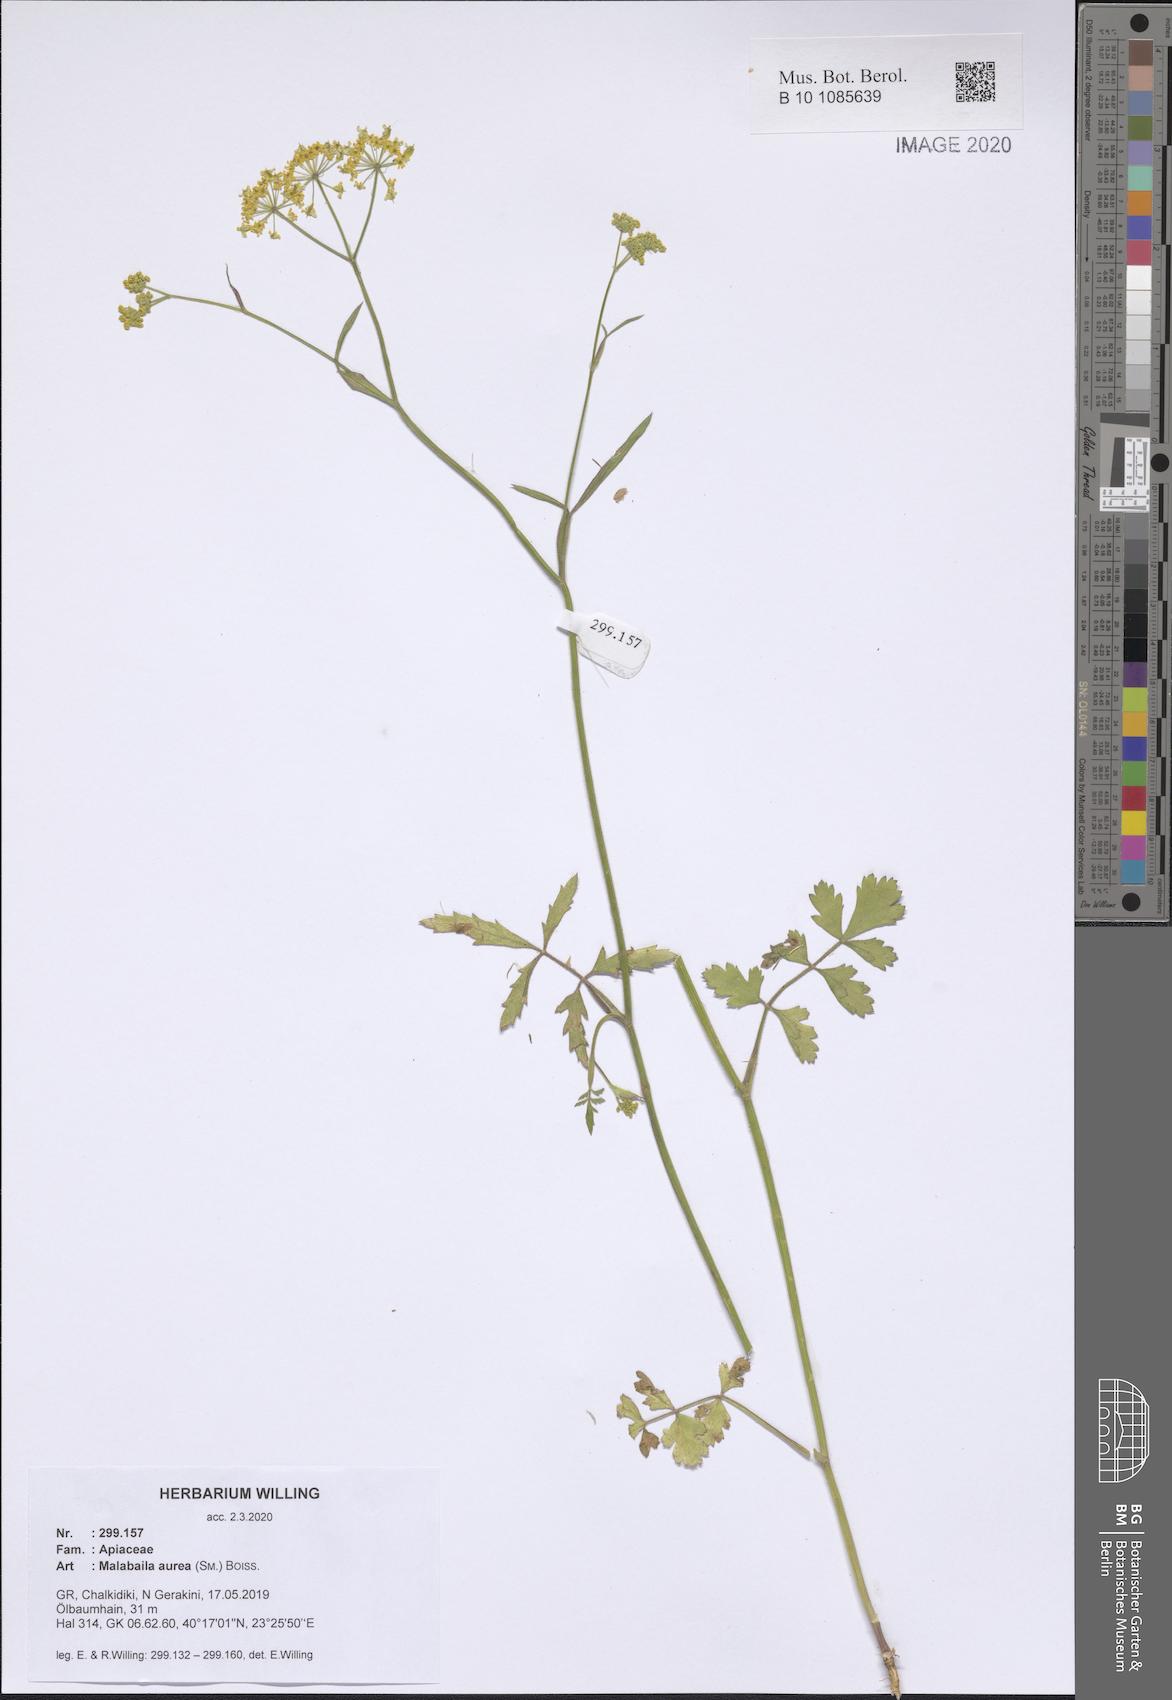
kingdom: Plantae
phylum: Tracheophyta
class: Magnoliopsida
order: Apiales
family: Apiaceae
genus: Leiotulus
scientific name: Leiotulus aureus
